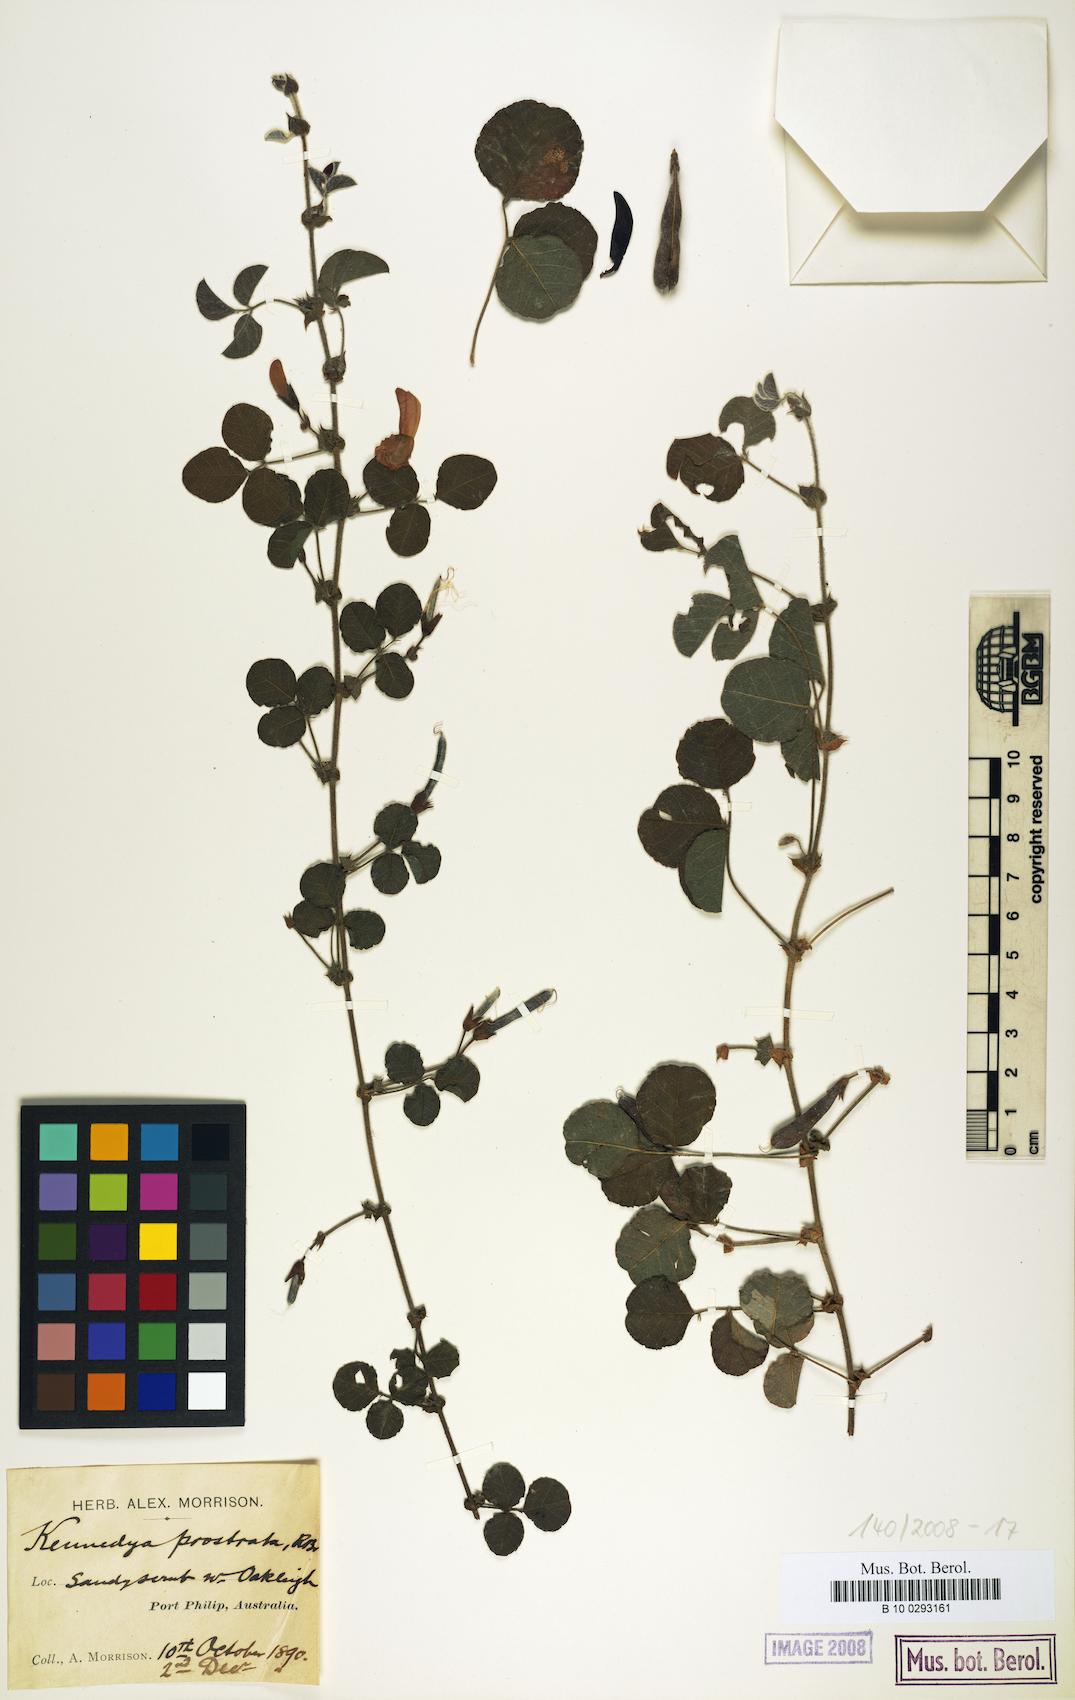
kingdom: Plantae
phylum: Tracheophyta
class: Magnoliopsida
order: Fabales
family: Fabaceae
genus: Kennedia
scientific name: Kennedia prostrata
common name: Running-postman
